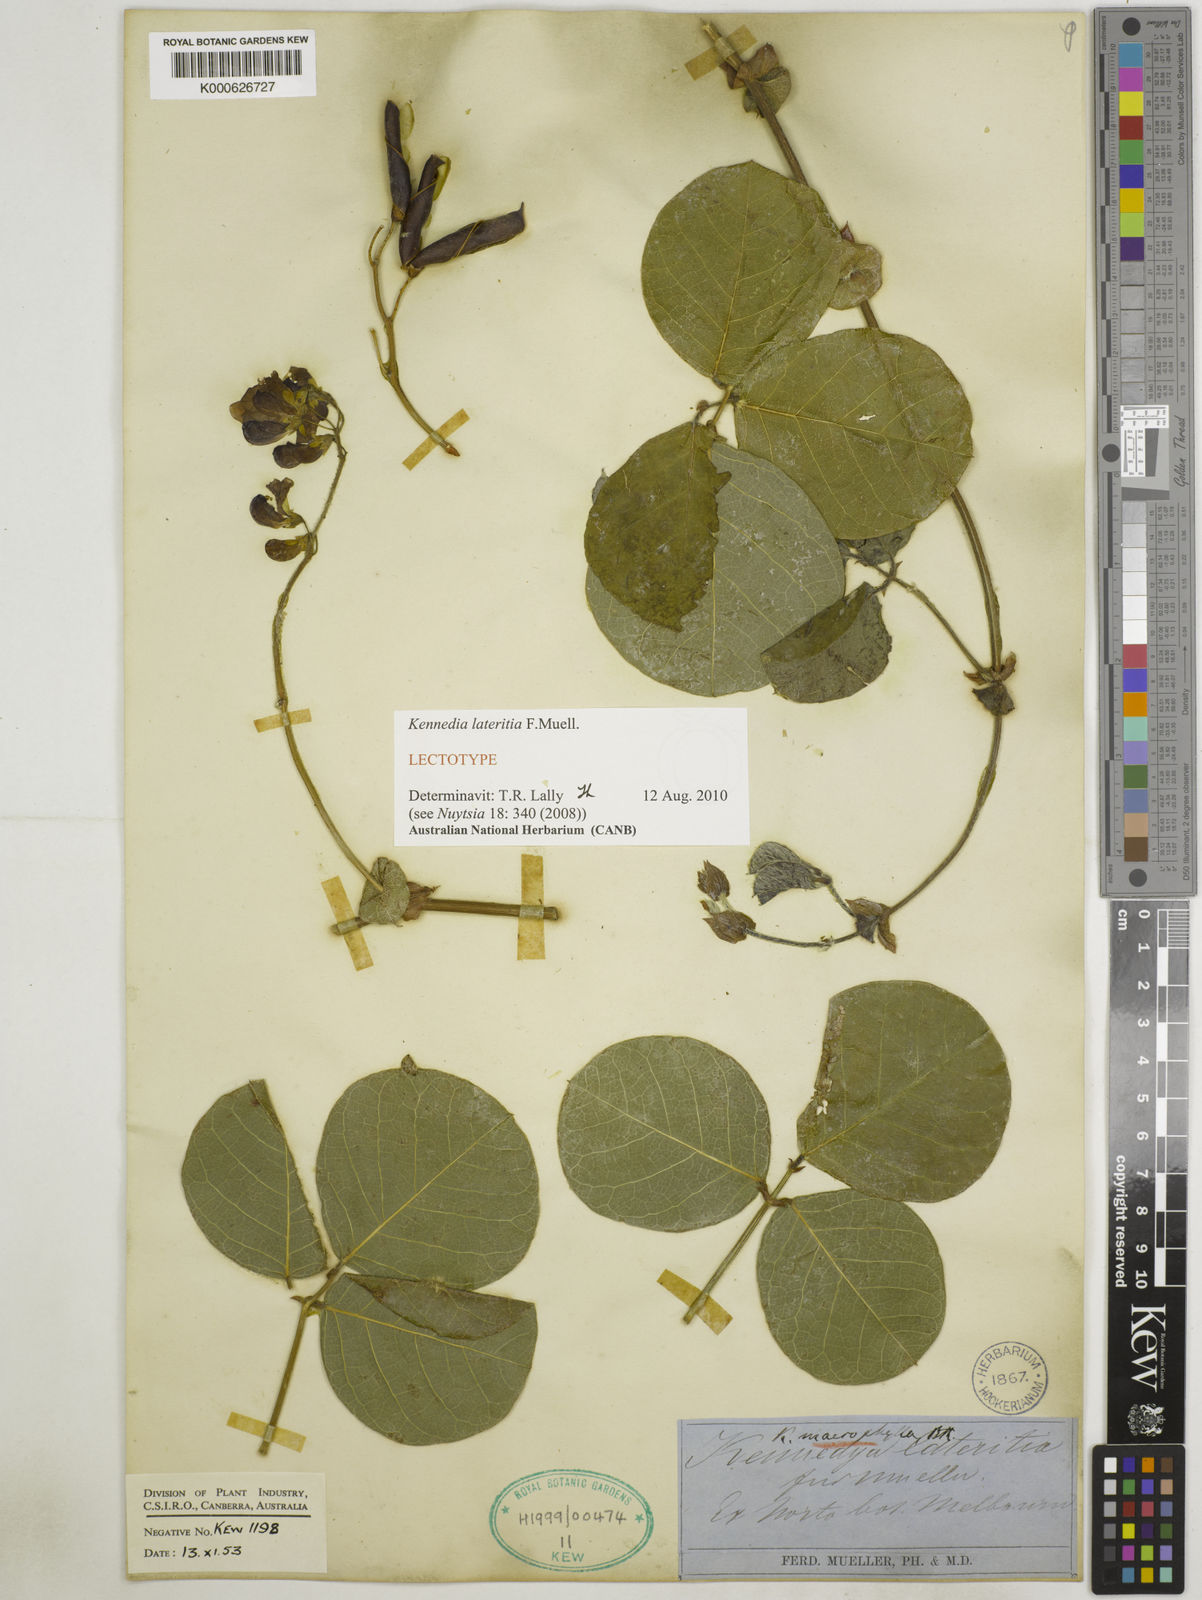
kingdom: Plantae
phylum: Tracheophyta
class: Magnoliopsida
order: Fabales
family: Fabaceae
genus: Kennedia
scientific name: Kennedia lateritia
